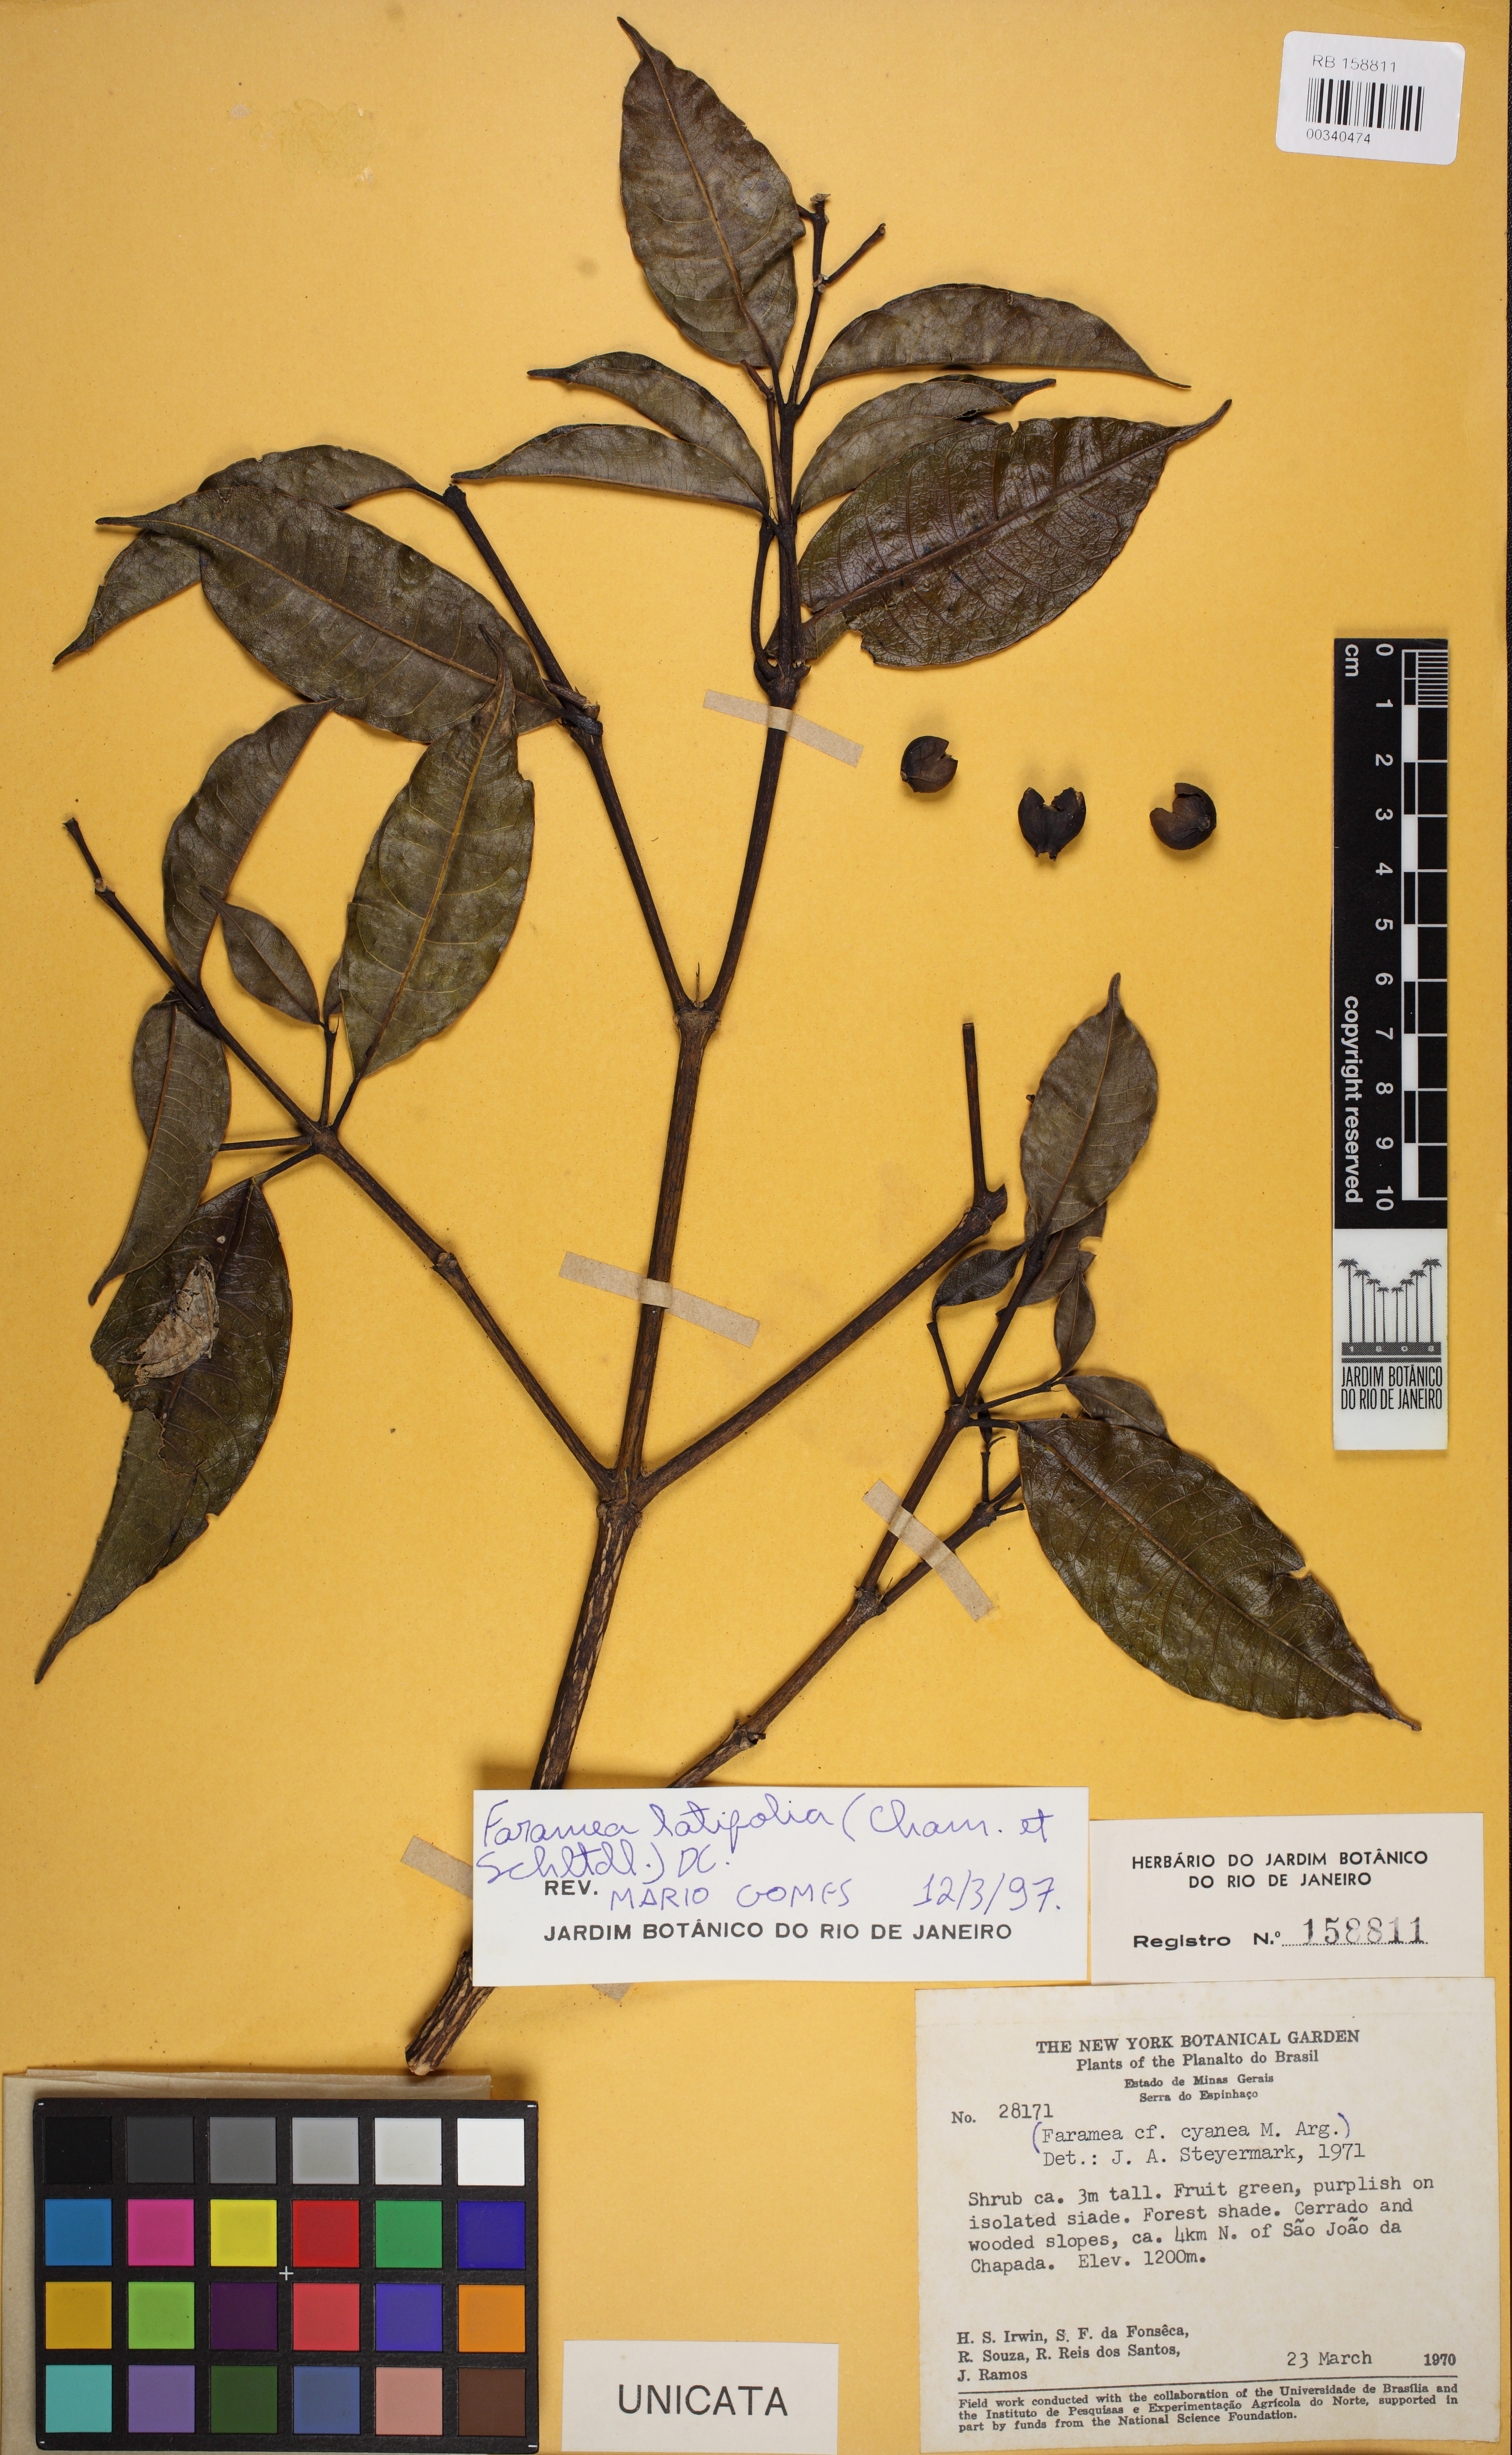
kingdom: Plantae
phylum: Tracheophyta
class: Magnoliopsida
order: Gentianales
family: Rubiaceae
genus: Faramea
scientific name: Faramea latifolia
